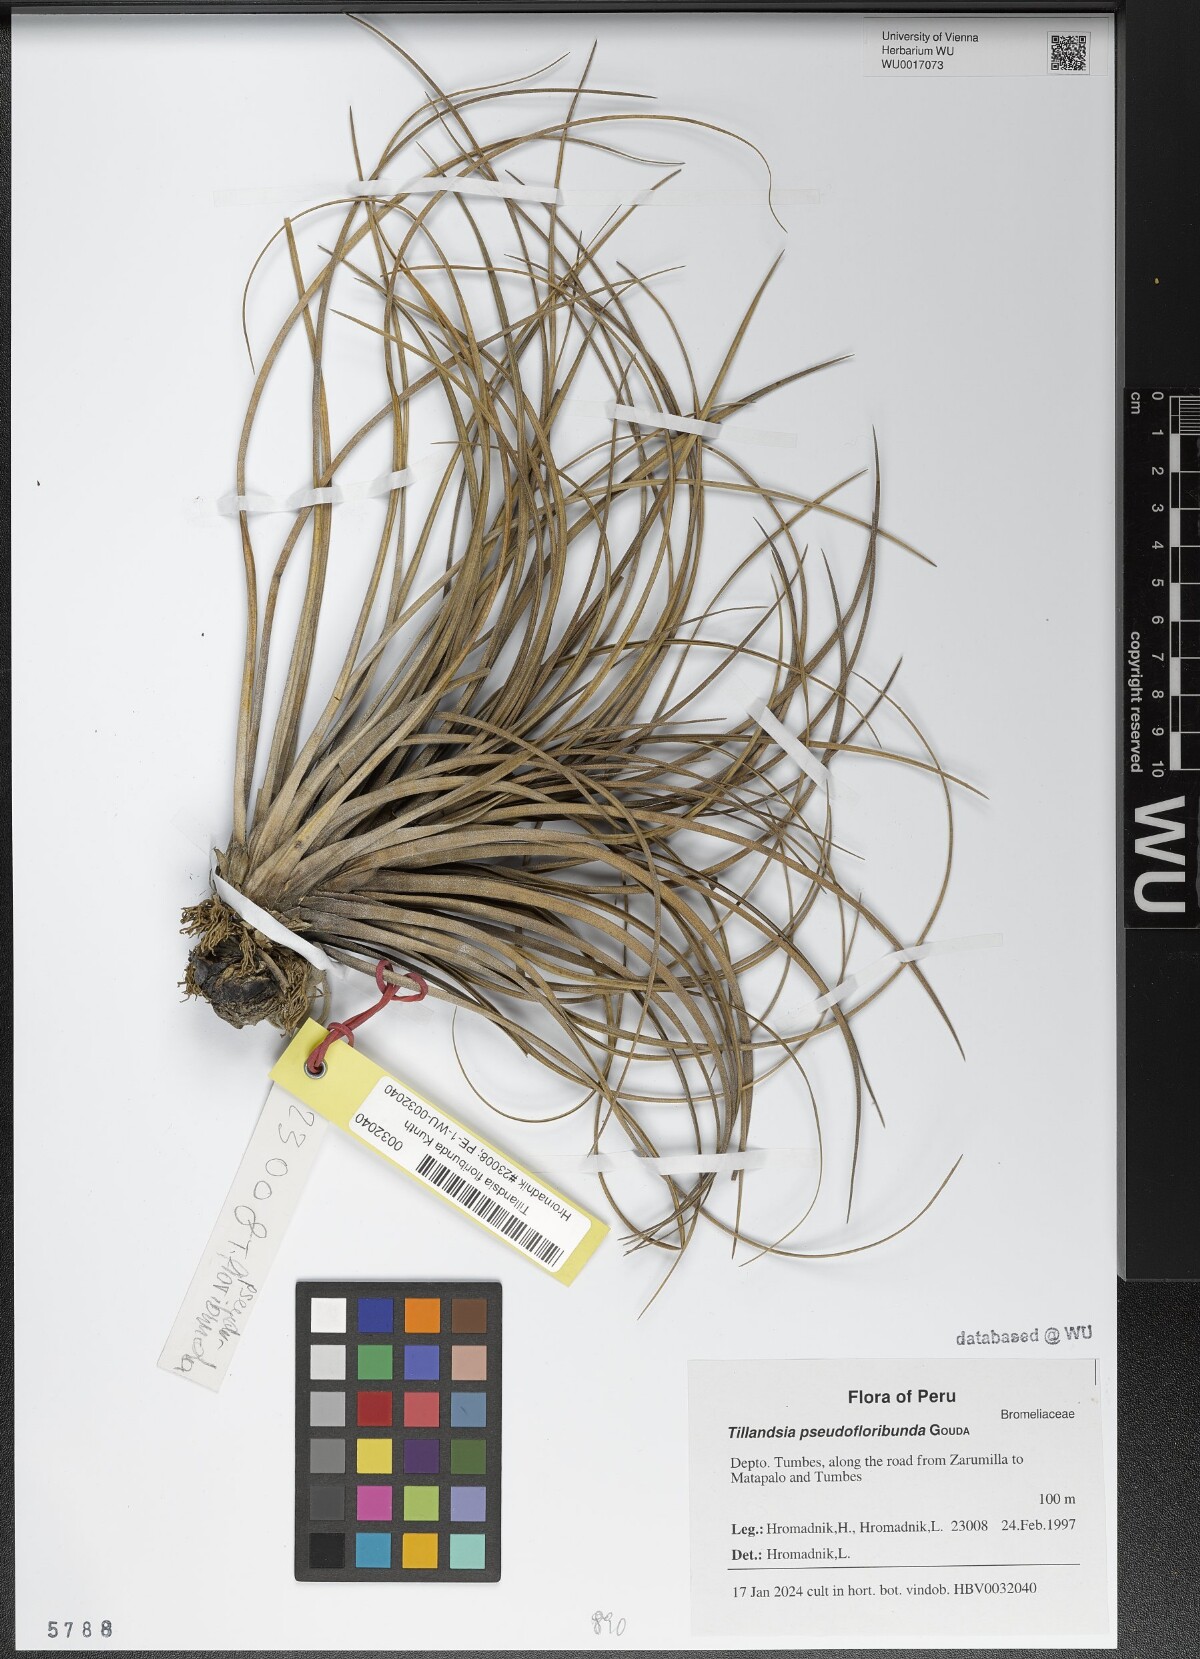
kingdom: Plantae
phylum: Tracheophyta
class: Liliopsida
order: Poales
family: Bromeliaceae
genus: Tillandsia
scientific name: Tillandsia pseudofloribunda
